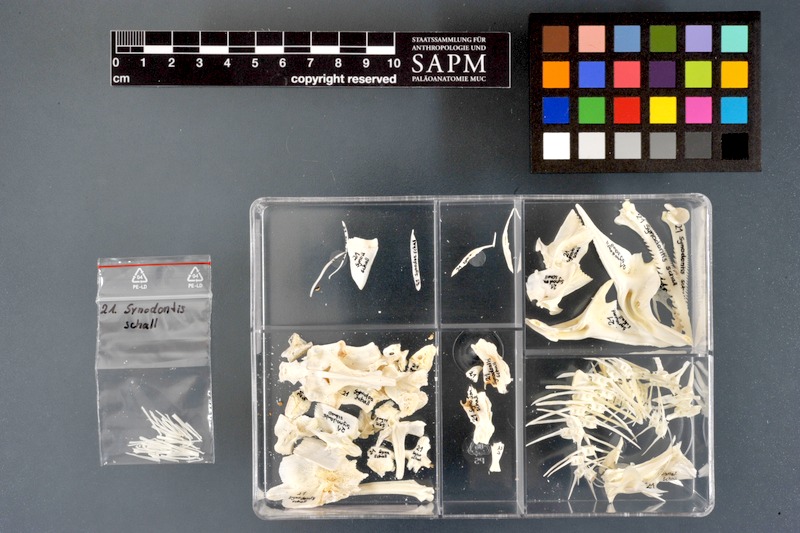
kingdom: Animalia
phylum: Chordata
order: Siluriformes
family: Mochokidae
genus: Synodontis
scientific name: Synodontis schall
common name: Wahrindi
